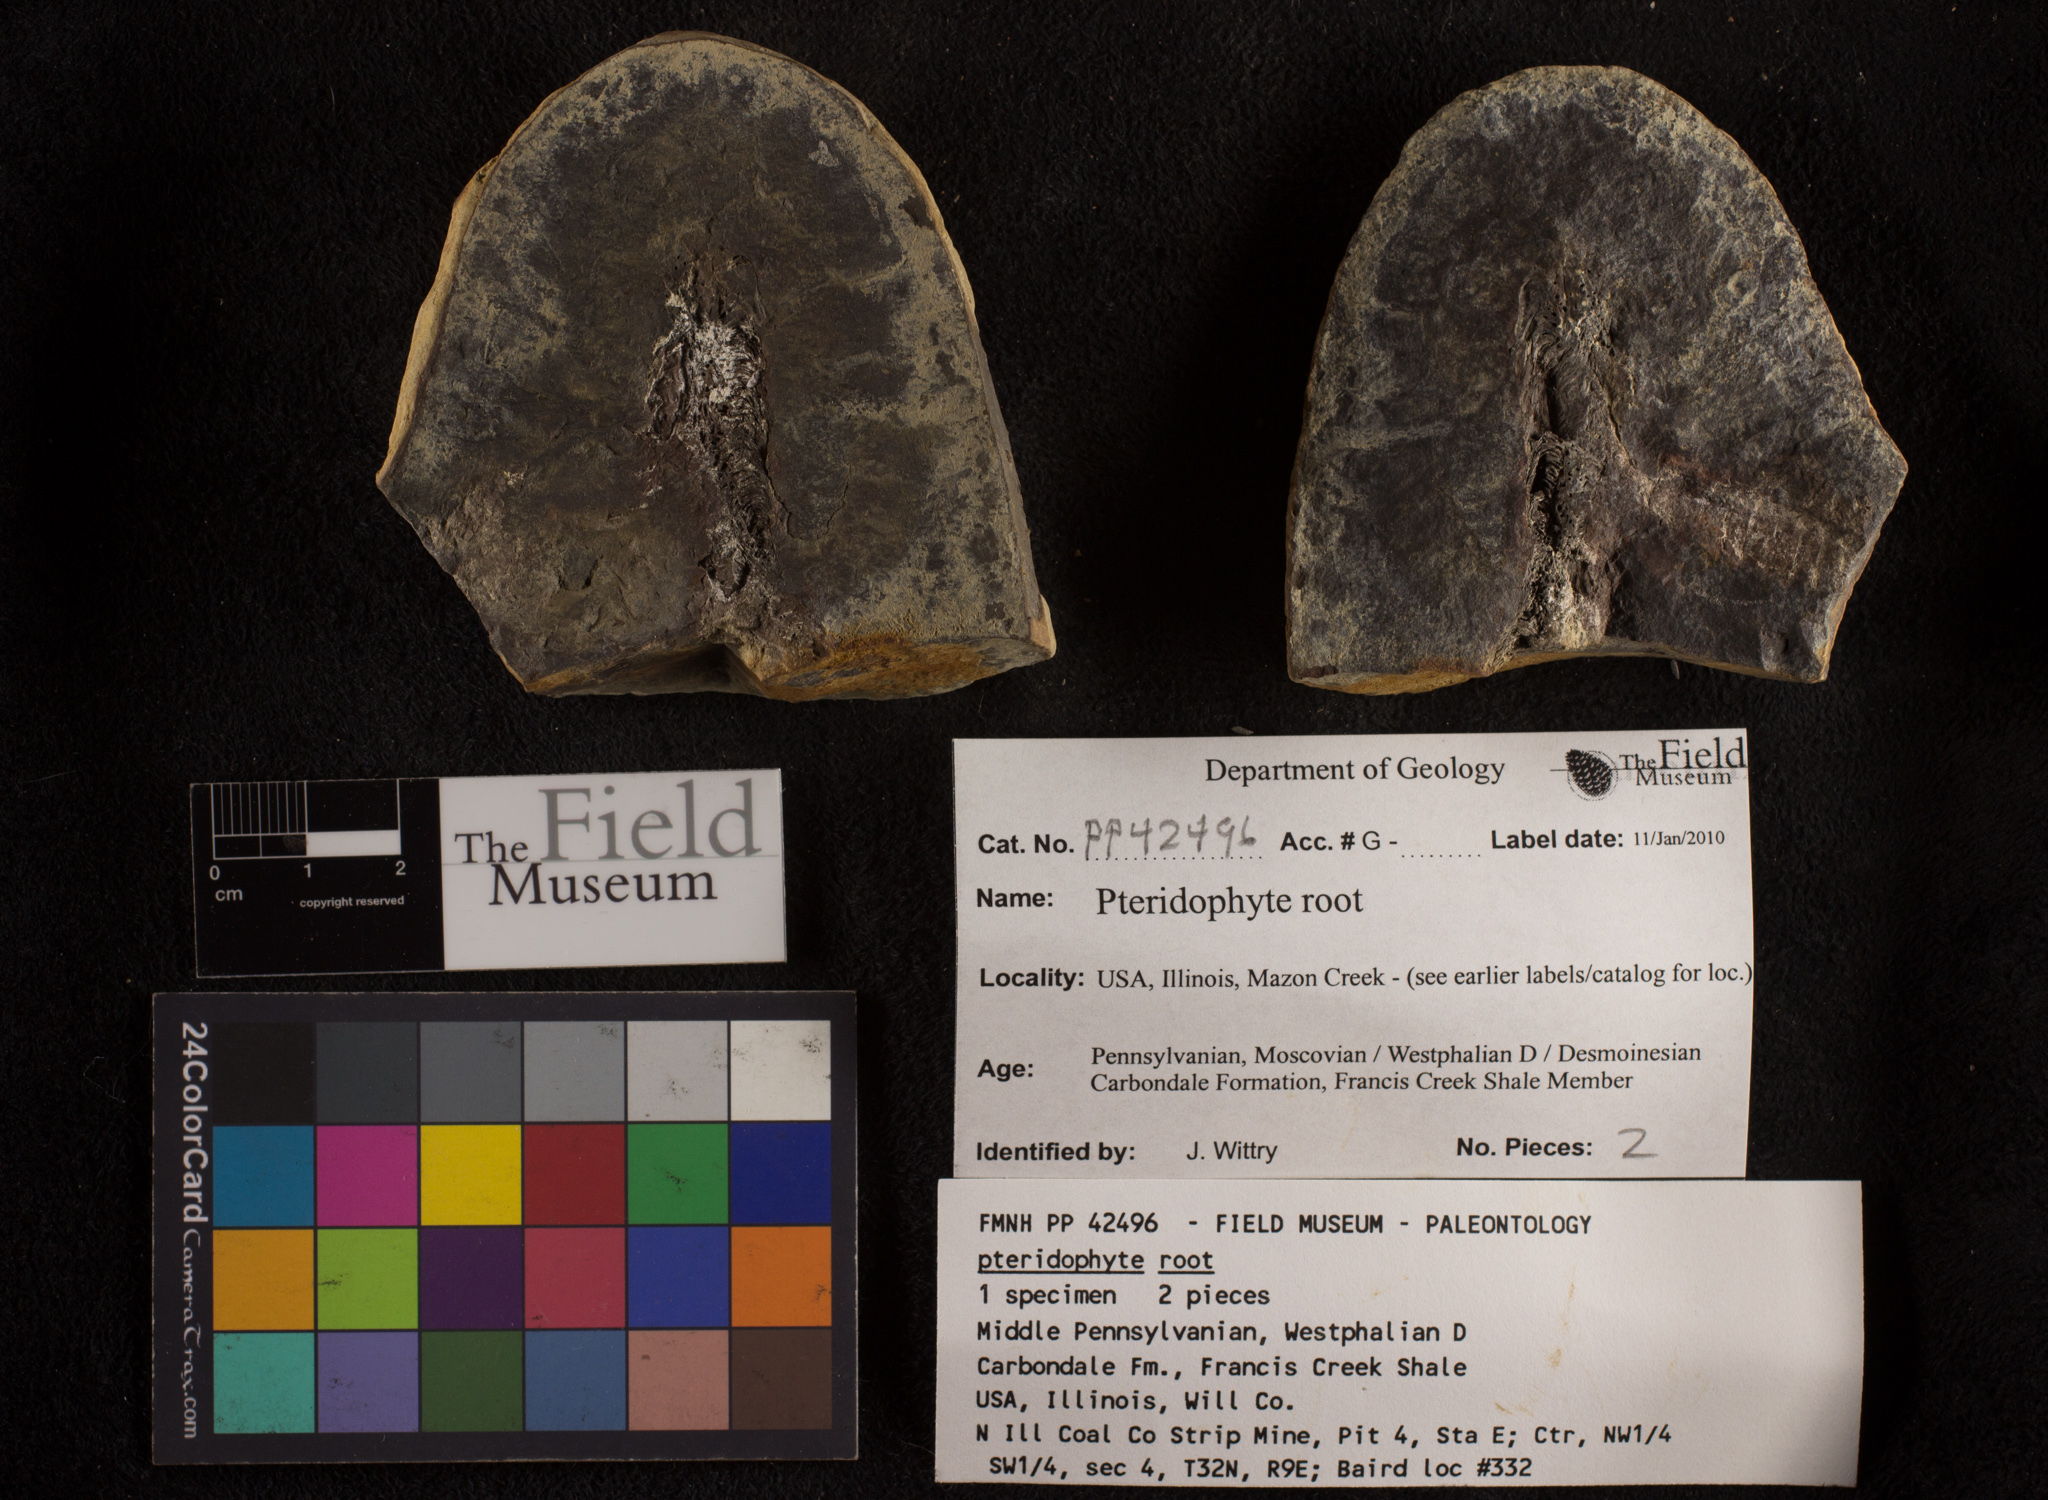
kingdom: Plantae
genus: Rhacophyllum
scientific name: Rhacophyllum
